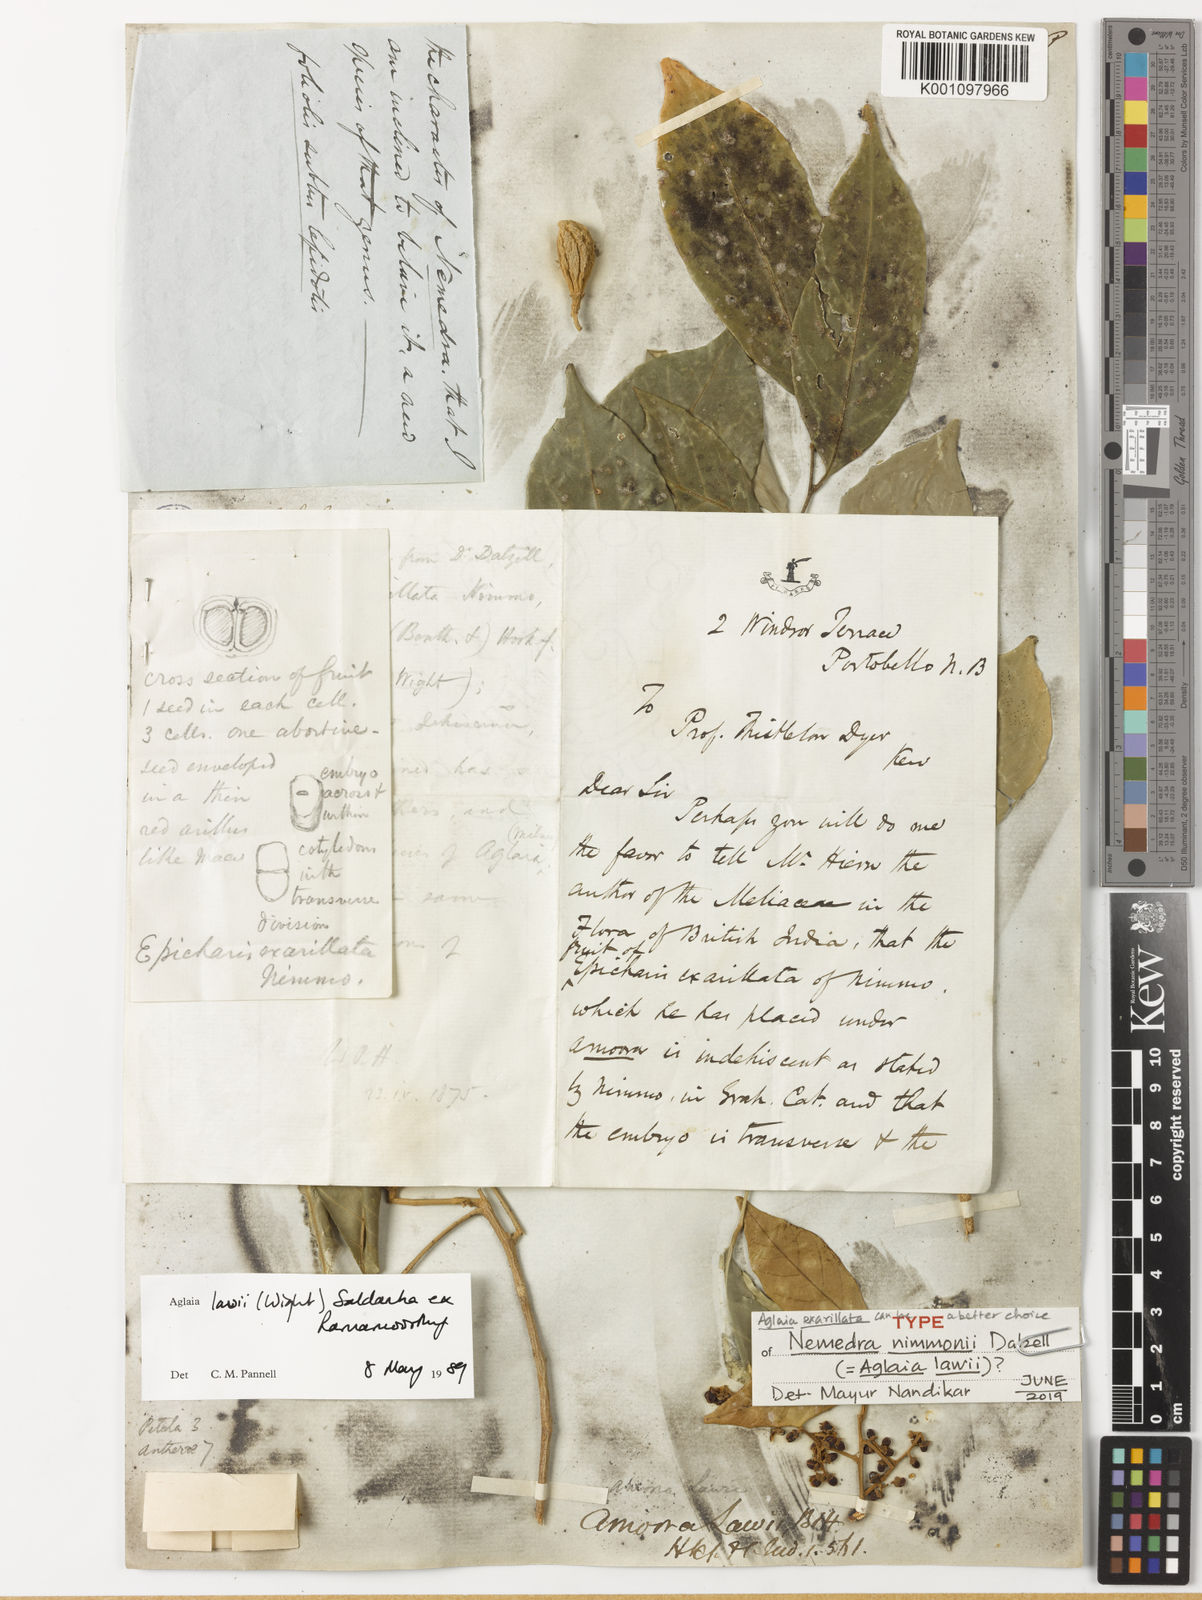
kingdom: Plantae
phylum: Tracheophyta
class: Magnoliopsida
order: Sapindales
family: Meliaceae
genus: Aglaia
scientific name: Aglaia lawii
